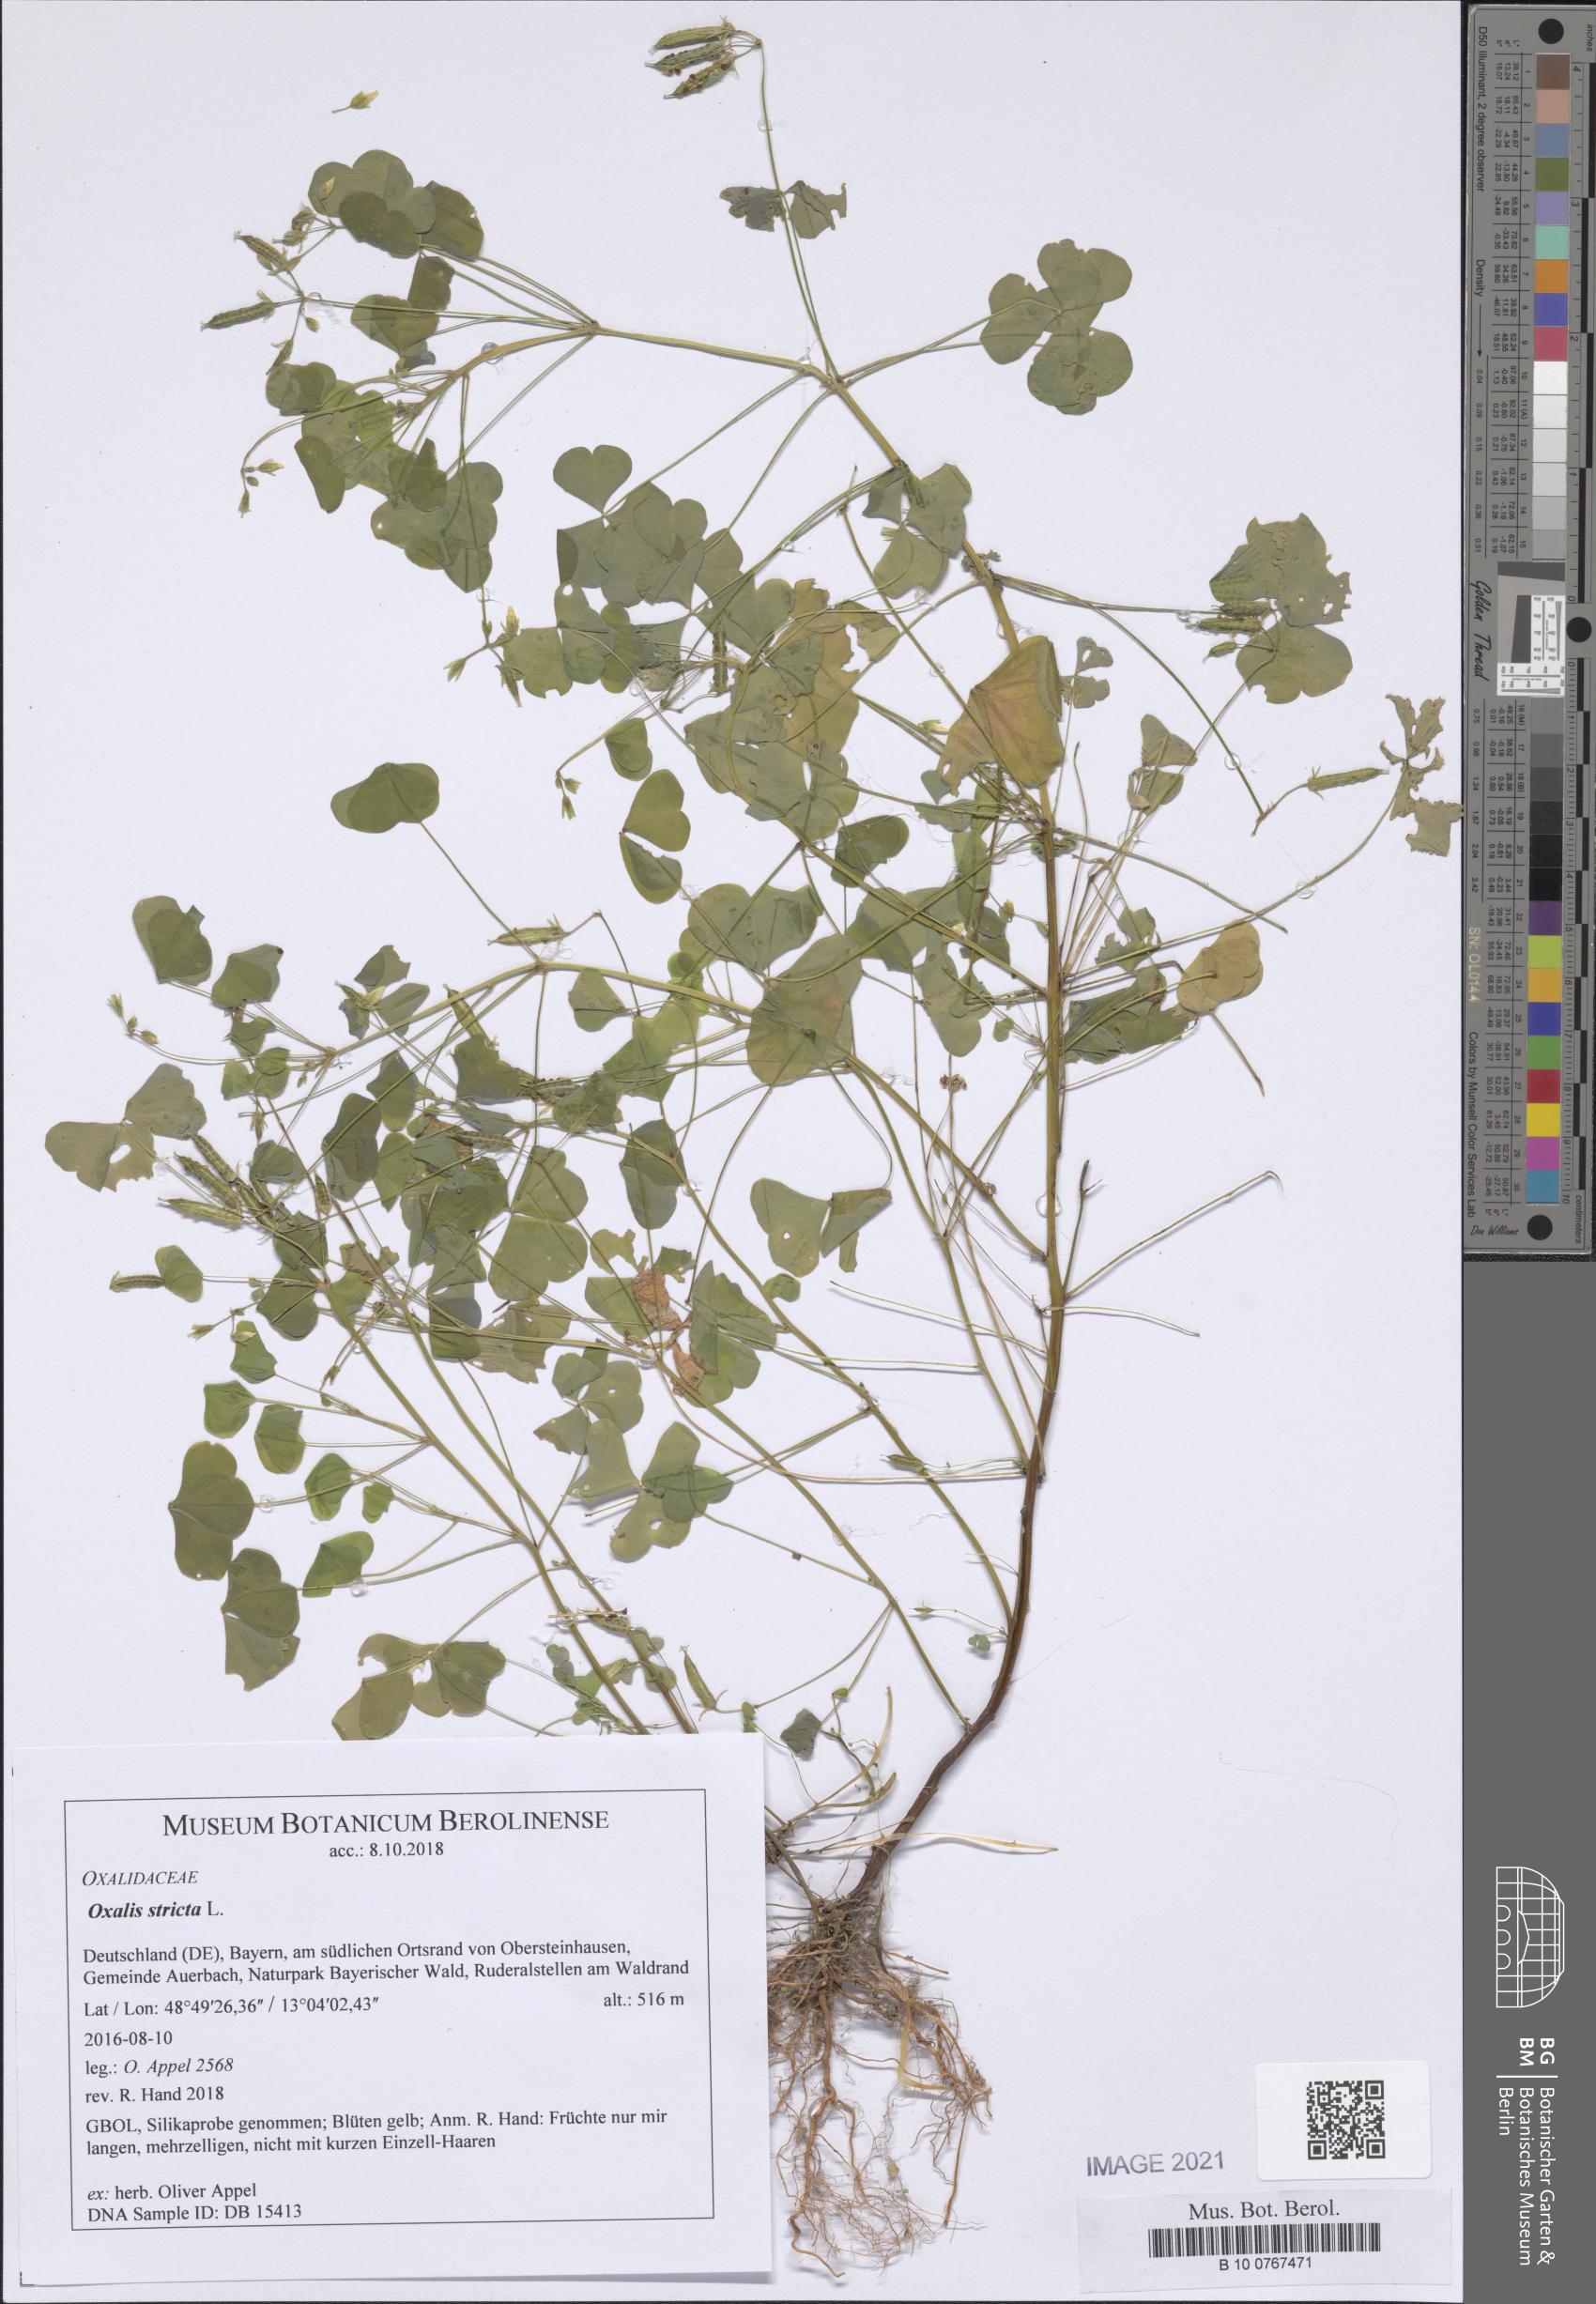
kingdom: Plantae
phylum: Tracheophyta
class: Magnoliopsida
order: Oxalidales
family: Oxalidaceae
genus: Oxalis
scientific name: Oxalis stricta
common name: Upright yellow-sorrel
